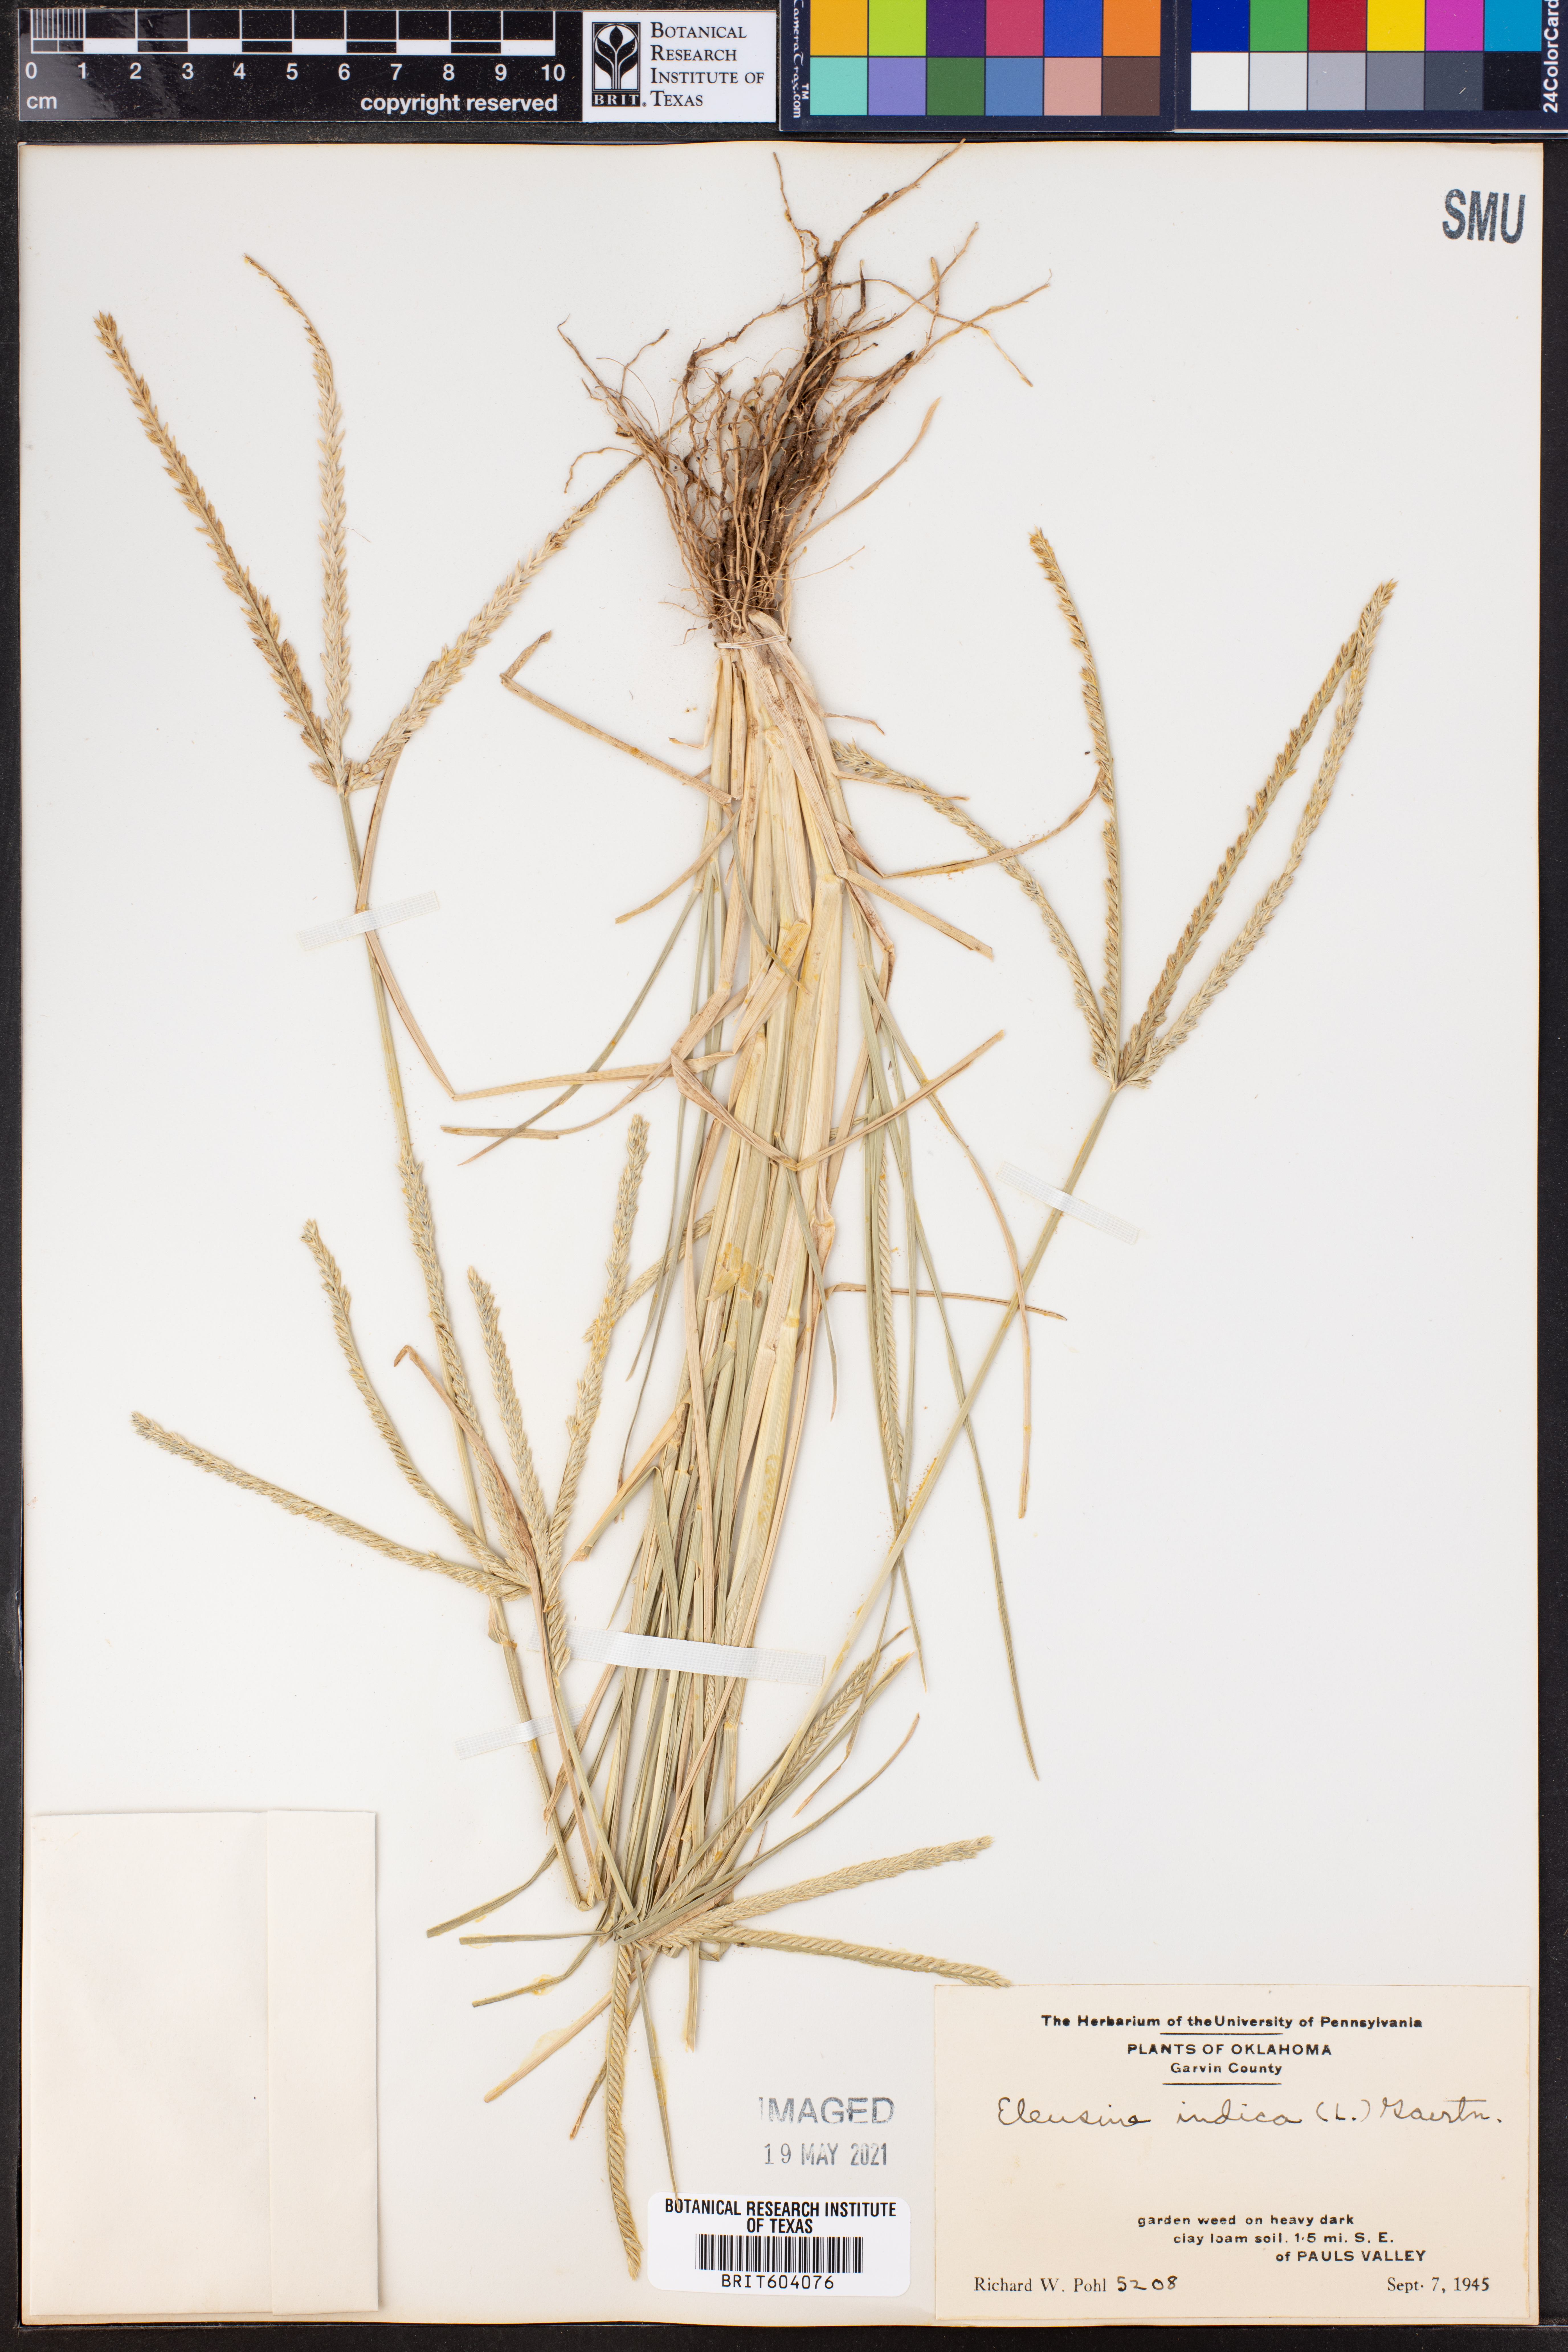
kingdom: Plantae
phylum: Tracheophyta
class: Liliopsida
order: Poales
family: Poaceae
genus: Eleusine
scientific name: Eleusine indica
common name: Yard-grass
